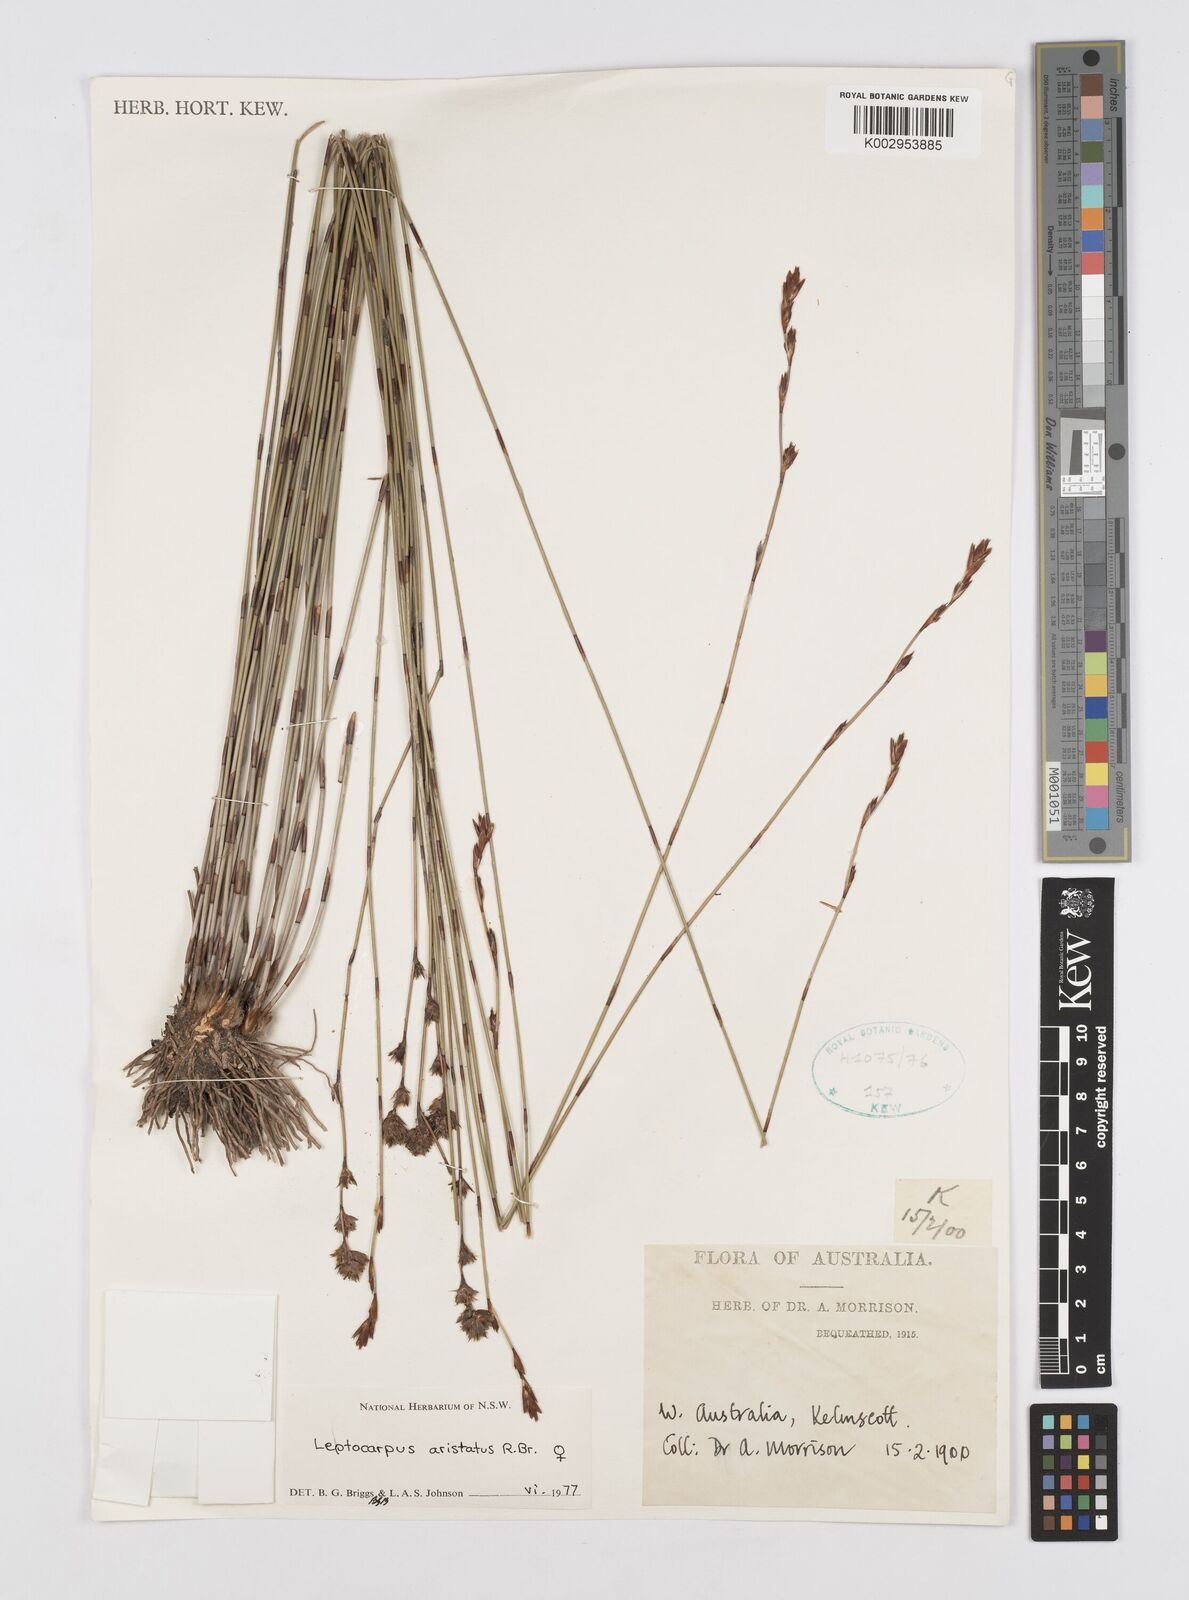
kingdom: Plantae
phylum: Tracheophyta
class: Liliopsida
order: Poales
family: Restionaceae
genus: Chaetanthus
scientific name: Chaetanthus aristatus
